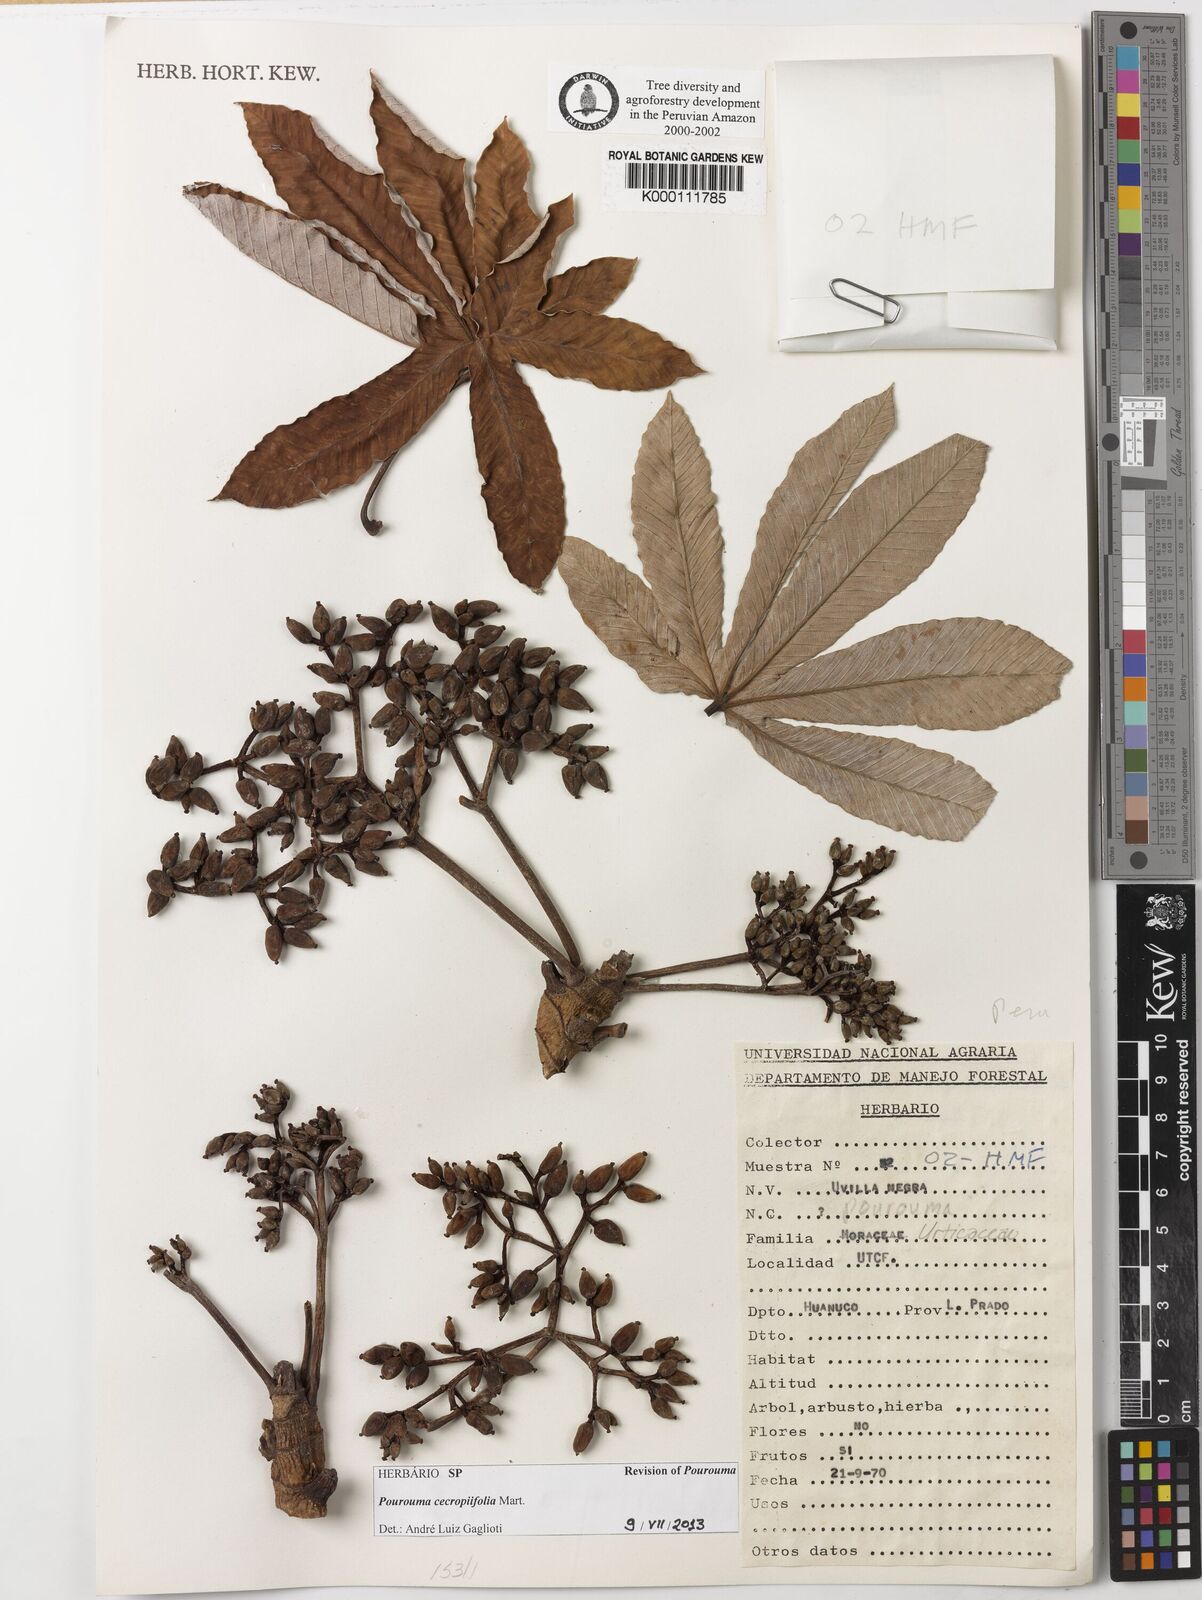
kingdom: Plantae
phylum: Tracheophyta
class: Magnoliopsida
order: Rosales
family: Urticaceae
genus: Pourouma
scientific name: Pourouma cecropiifolia
